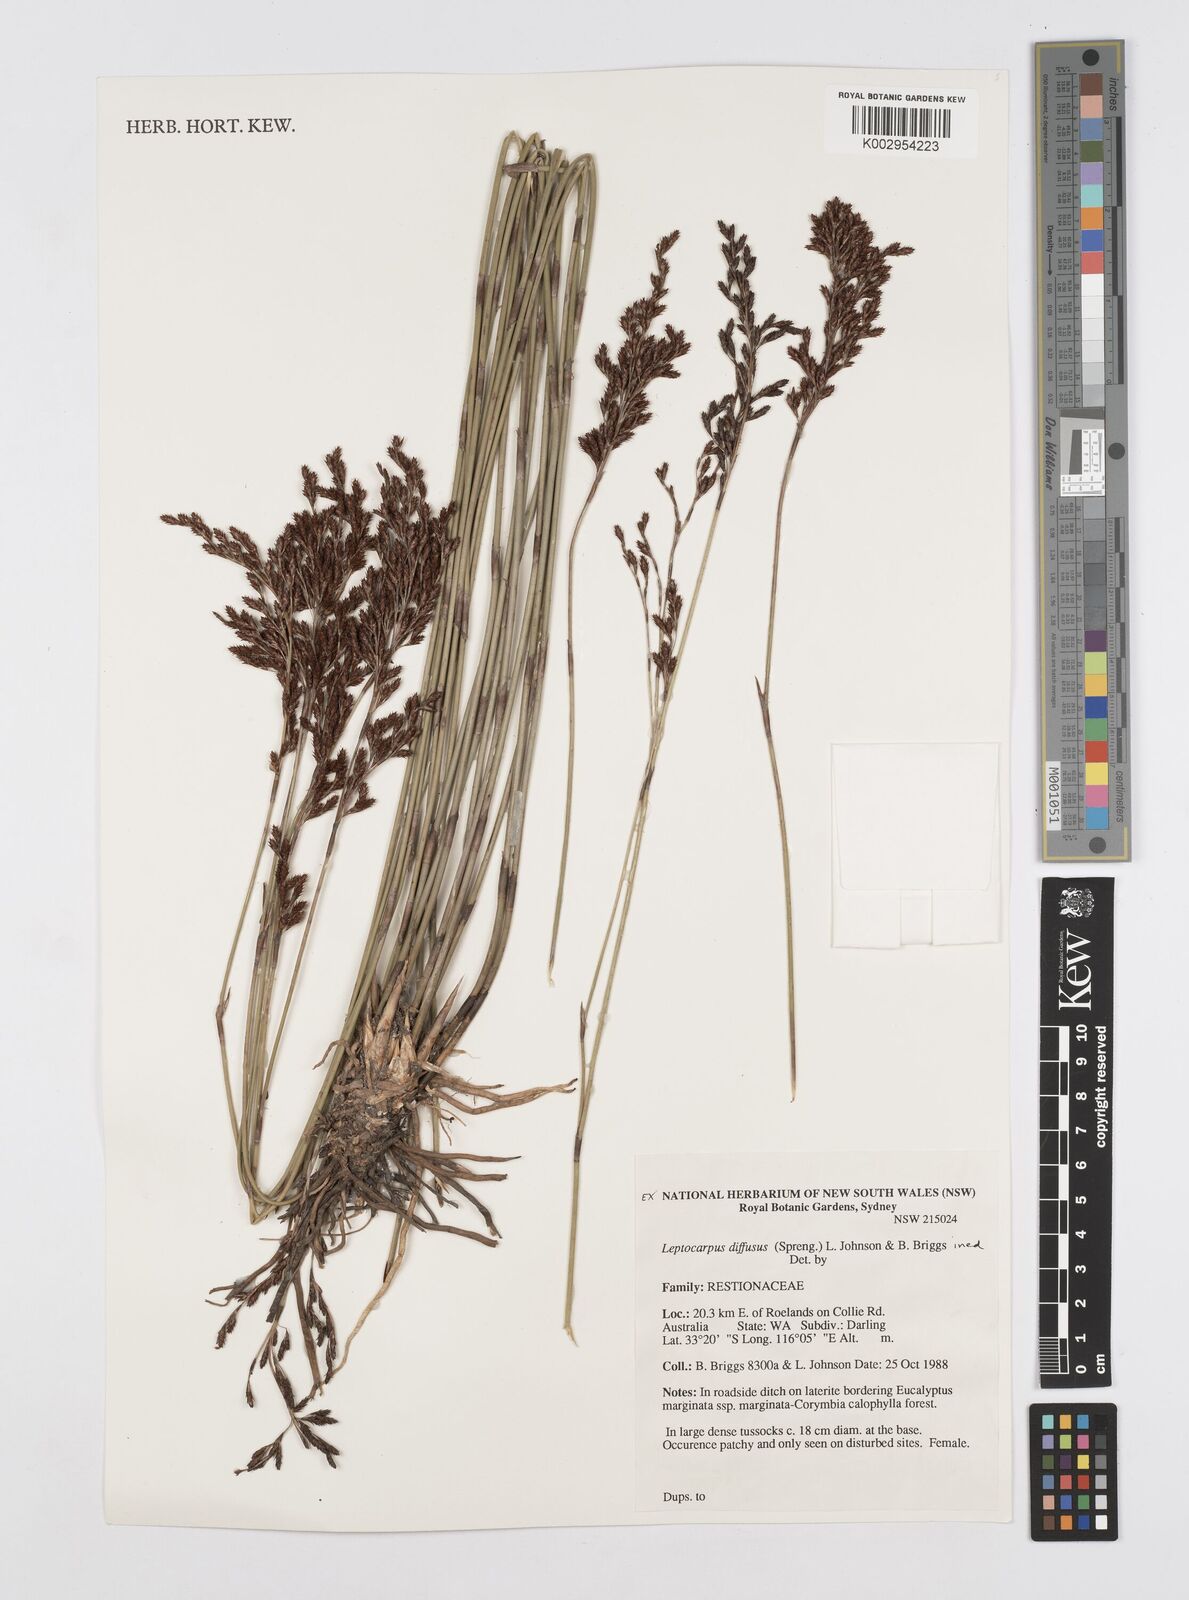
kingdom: Plantae
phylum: Tracheophyta
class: Liliopsida
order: Poales
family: Restionaceae
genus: Leptocarpus
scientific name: Leptocarpus laxus
